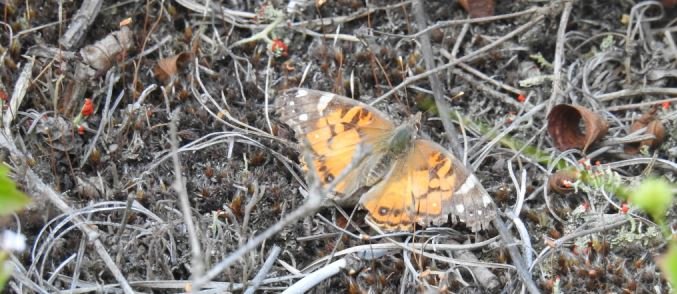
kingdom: Animalia
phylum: Arthropoda
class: Insecta
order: Lepidoptera
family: Nymphalidae
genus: Vanessa
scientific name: Vanessa virginiensis
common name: American Lady
